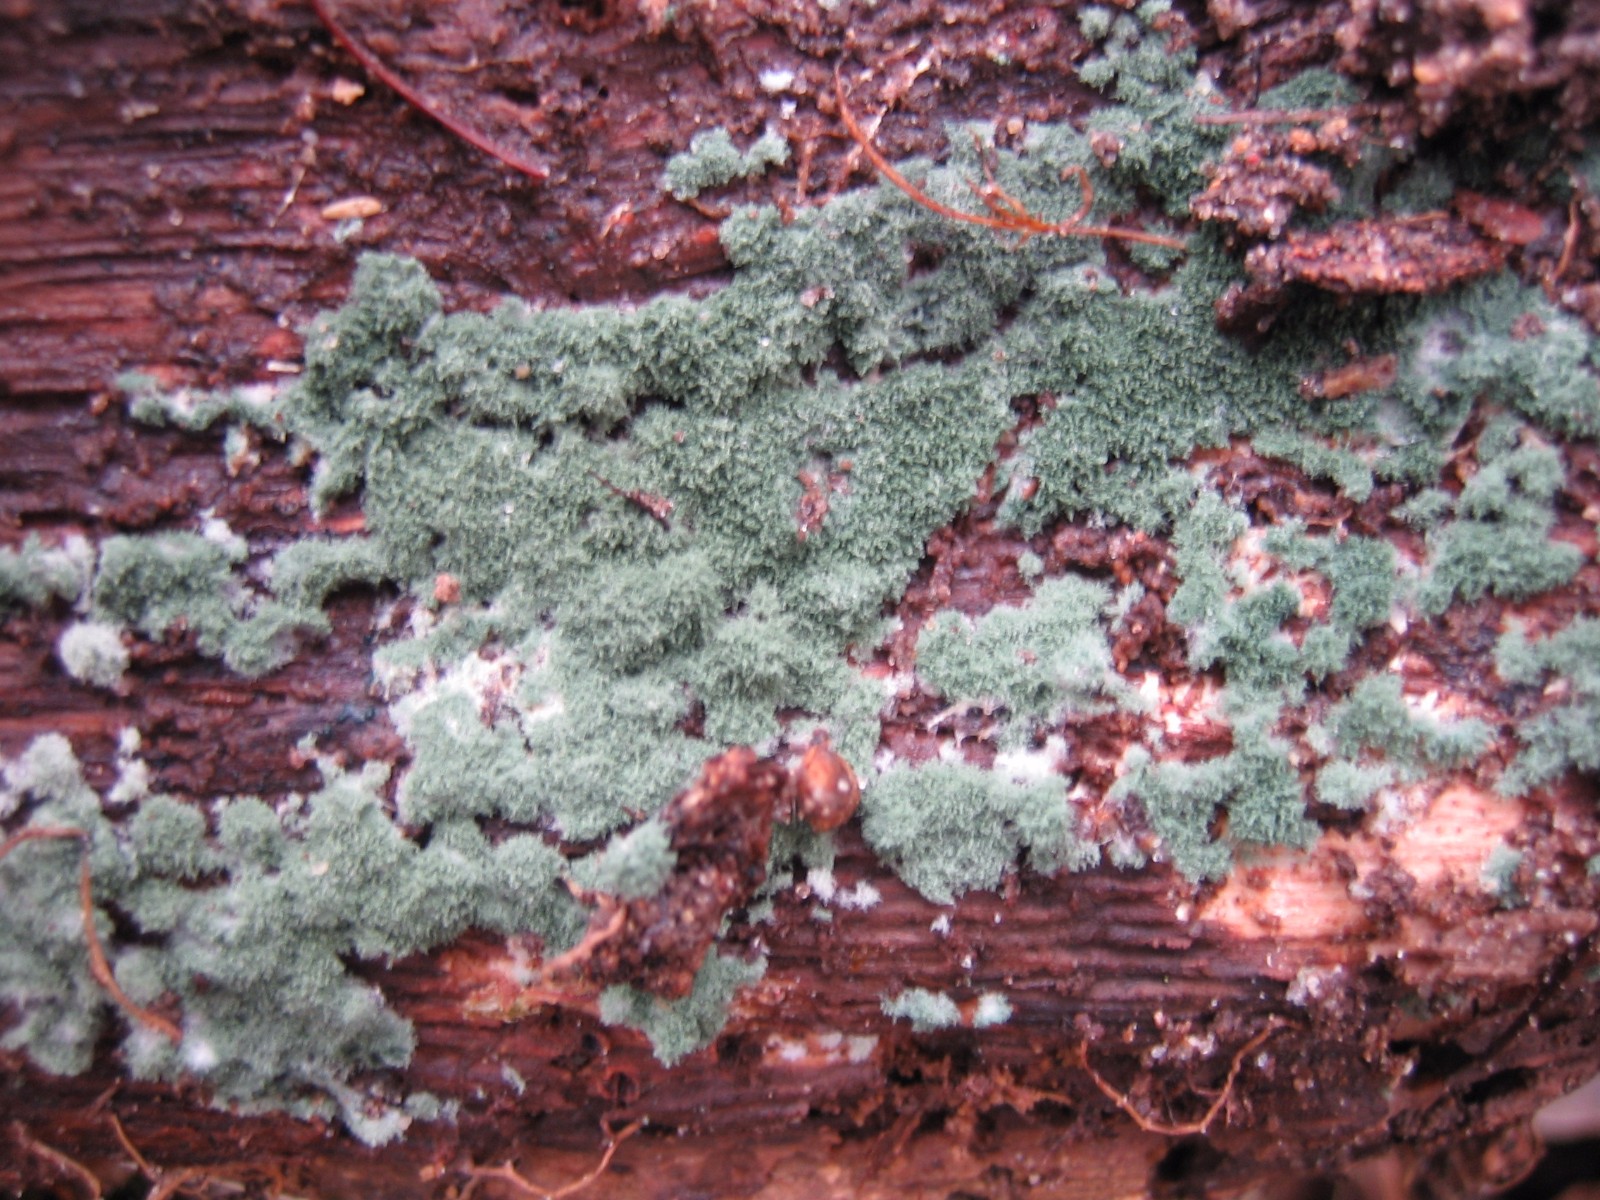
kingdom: Fungi
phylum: Ascomycota
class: Sordariomycetes
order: Hypocreales
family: Hypocreaceae
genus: Trichoderma
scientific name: Trichoderma
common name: kødkerne
